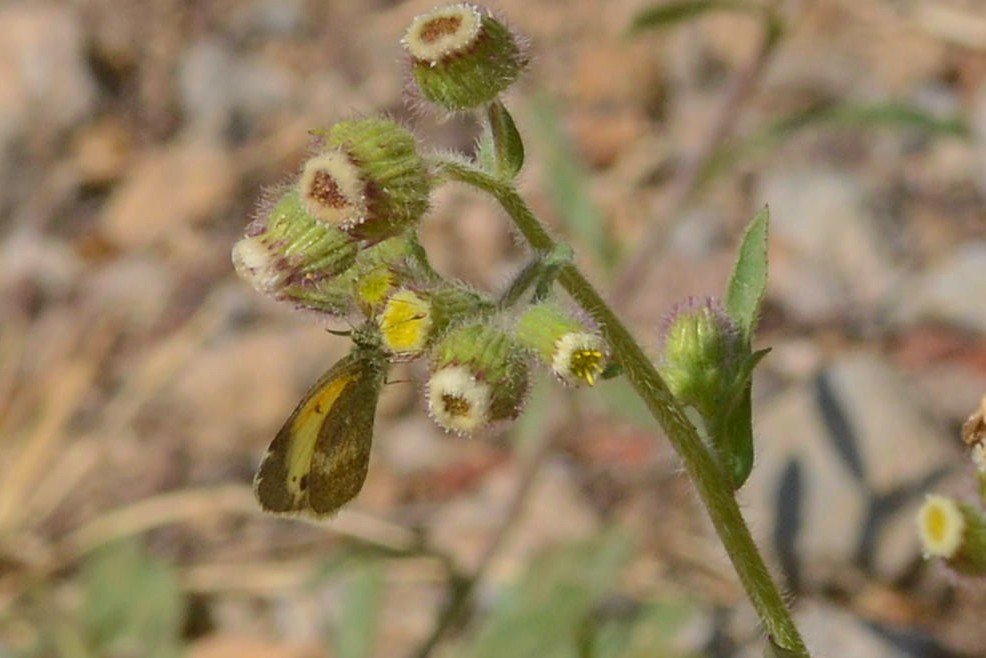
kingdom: Animalia
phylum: Arthropoda
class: Insecta
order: Lepidoptera
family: Pieridae
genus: Nathalis
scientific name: Nathalis iole
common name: Dainty Sulphur
